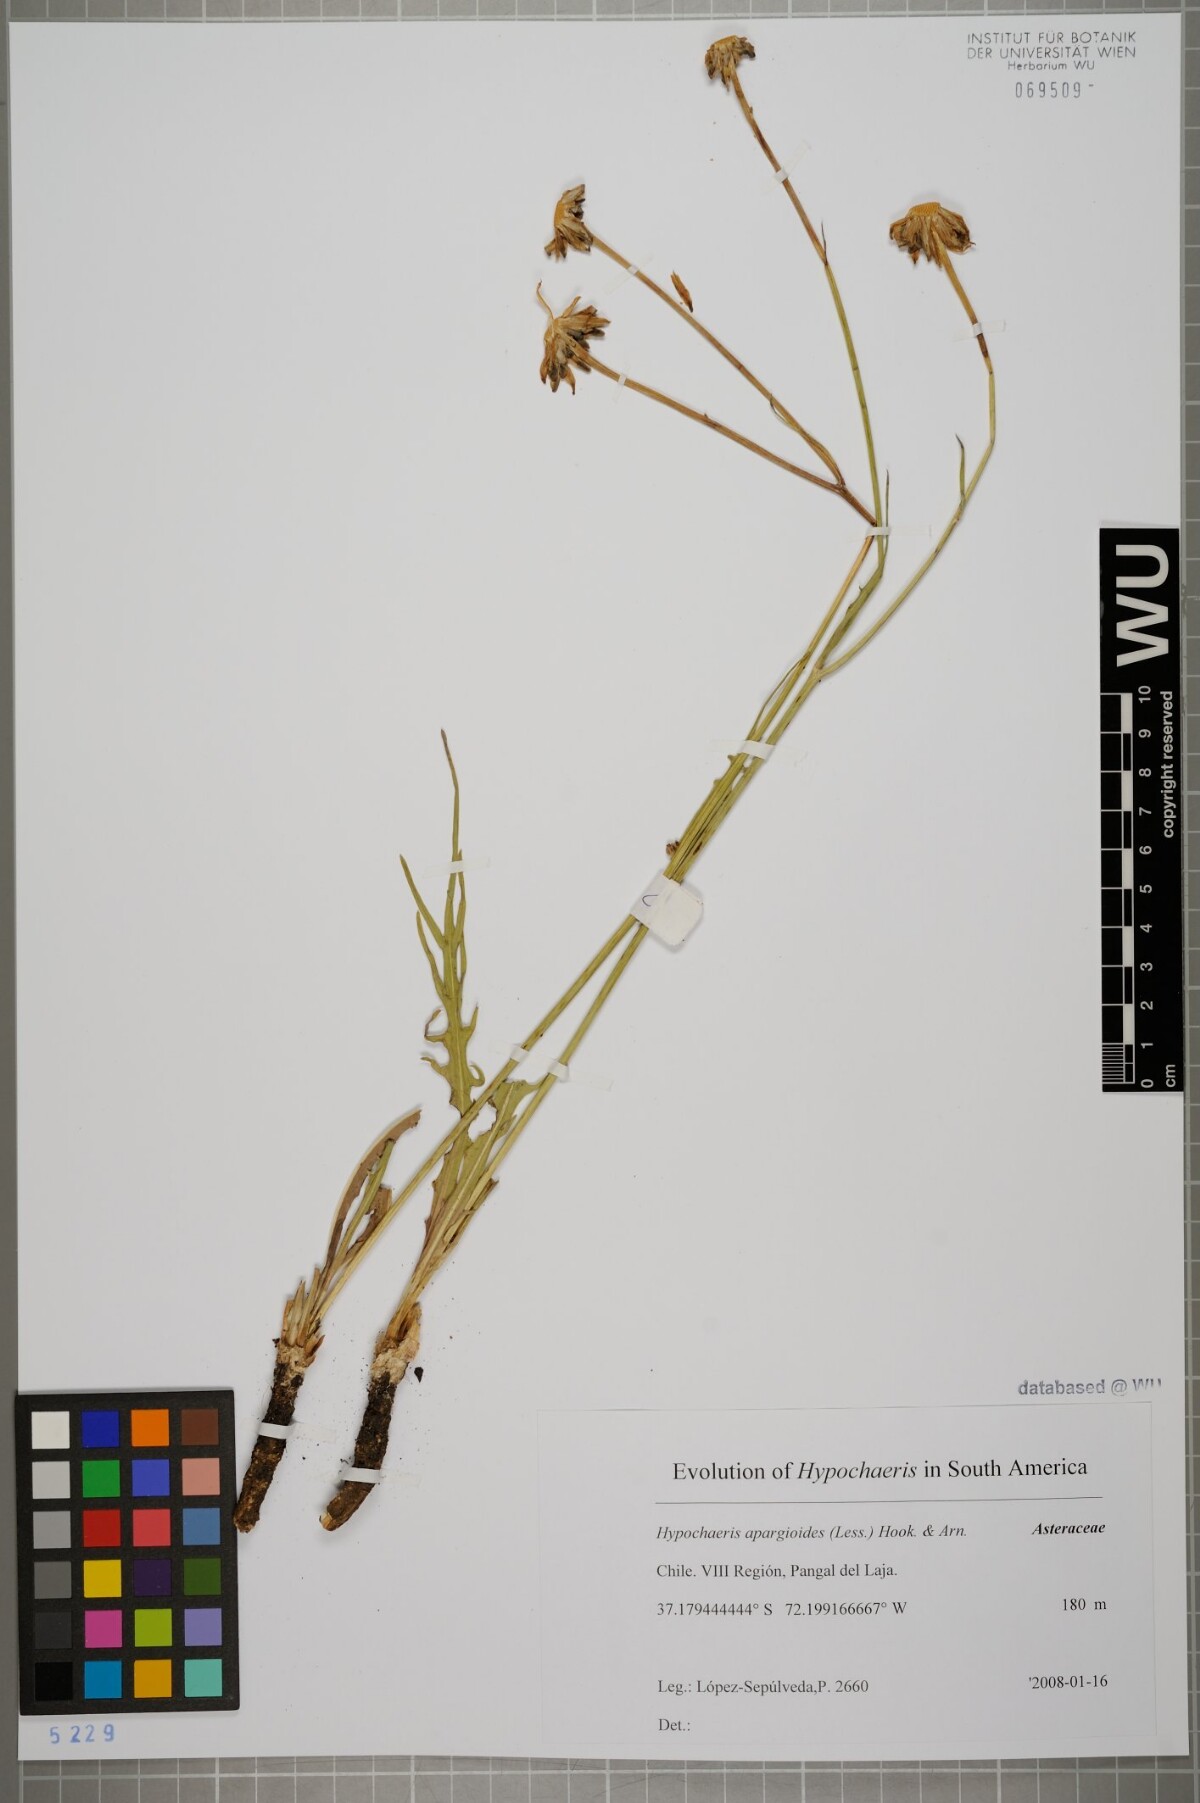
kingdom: Plantae
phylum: Tracheophyta
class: Magnoliopsida
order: Asterales
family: Asteraceae
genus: Hypochaeris
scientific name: Hypochaeris apargioides
